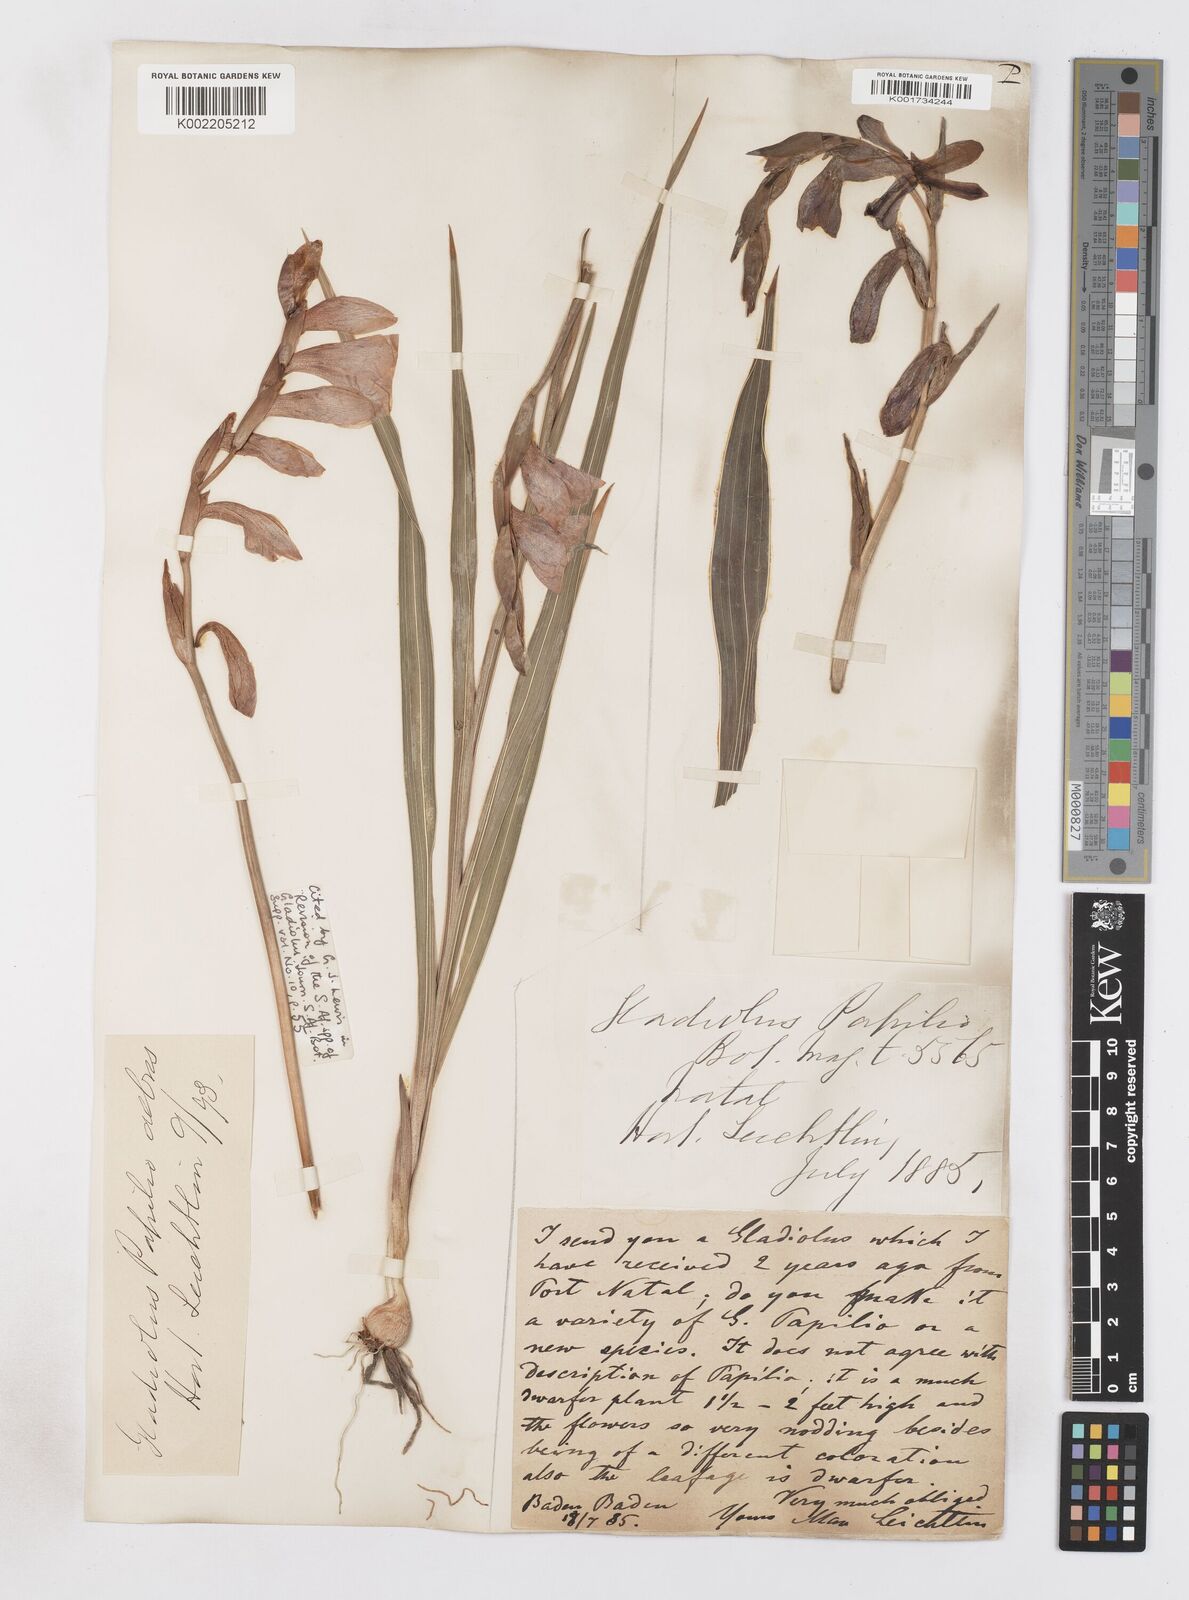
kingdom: Plantae
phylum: Tracheophyta
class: Liliopsida
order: Asparagales
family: Iridaceae
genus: Gladiolus
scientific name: Gladiolus papilio
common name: Goldblotch gladiolus
